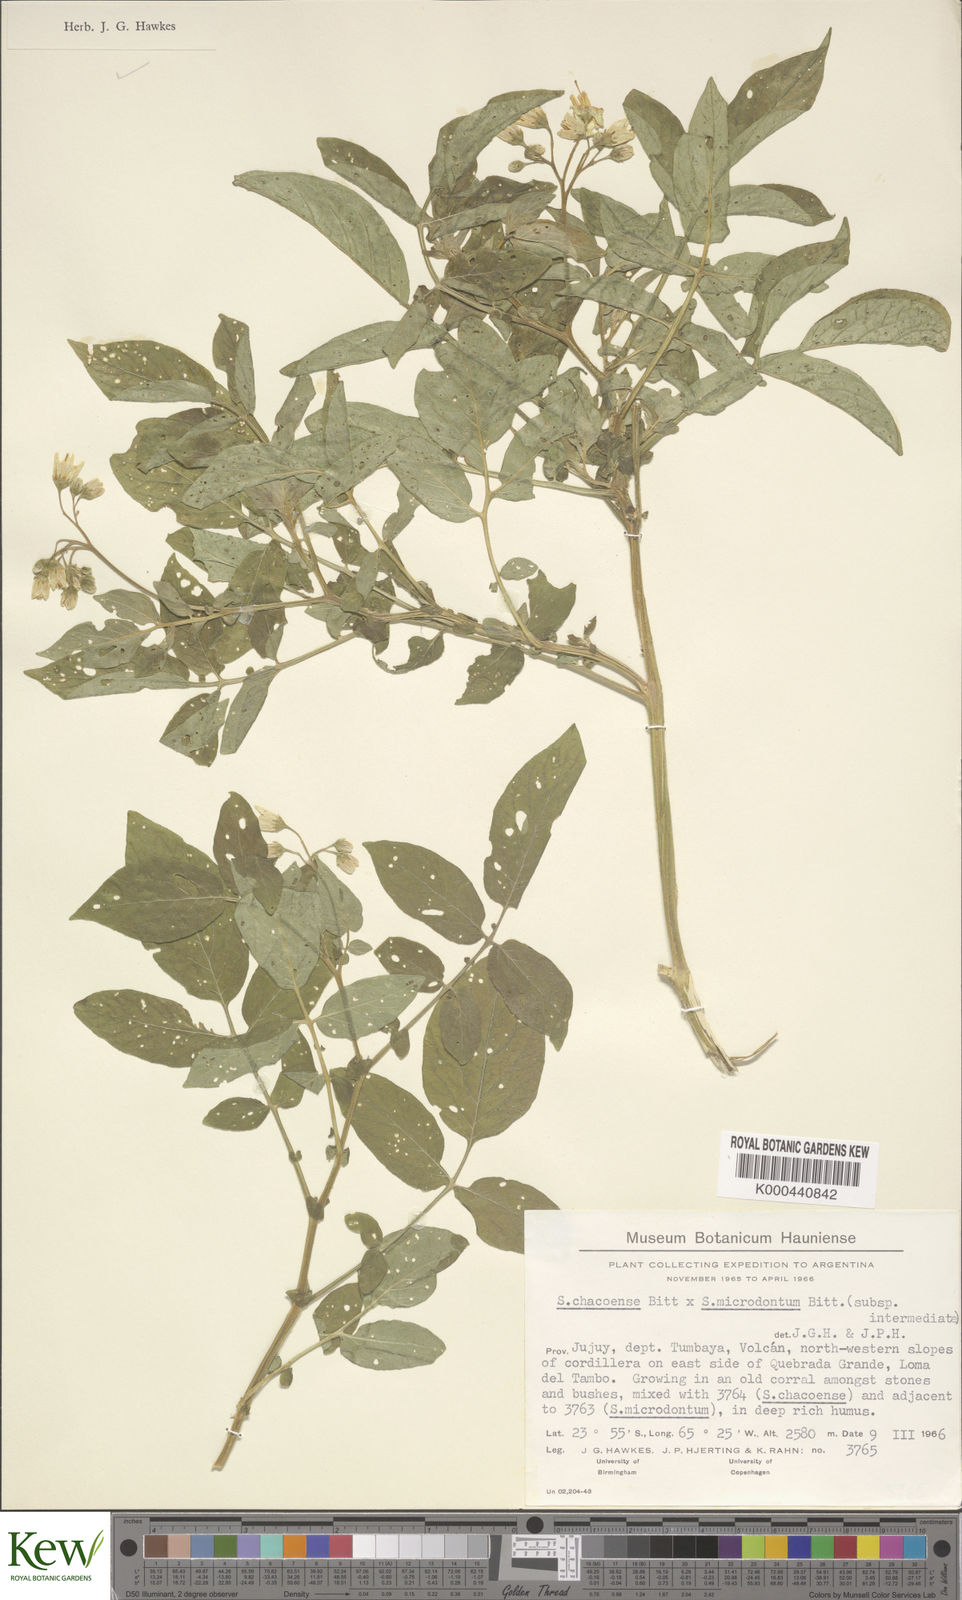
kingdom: Plantae
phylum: Tracheophyta
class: Magnoliopsida
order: Solanales
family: Solanaceae
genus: Solanum
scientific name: Solanum microdontum
